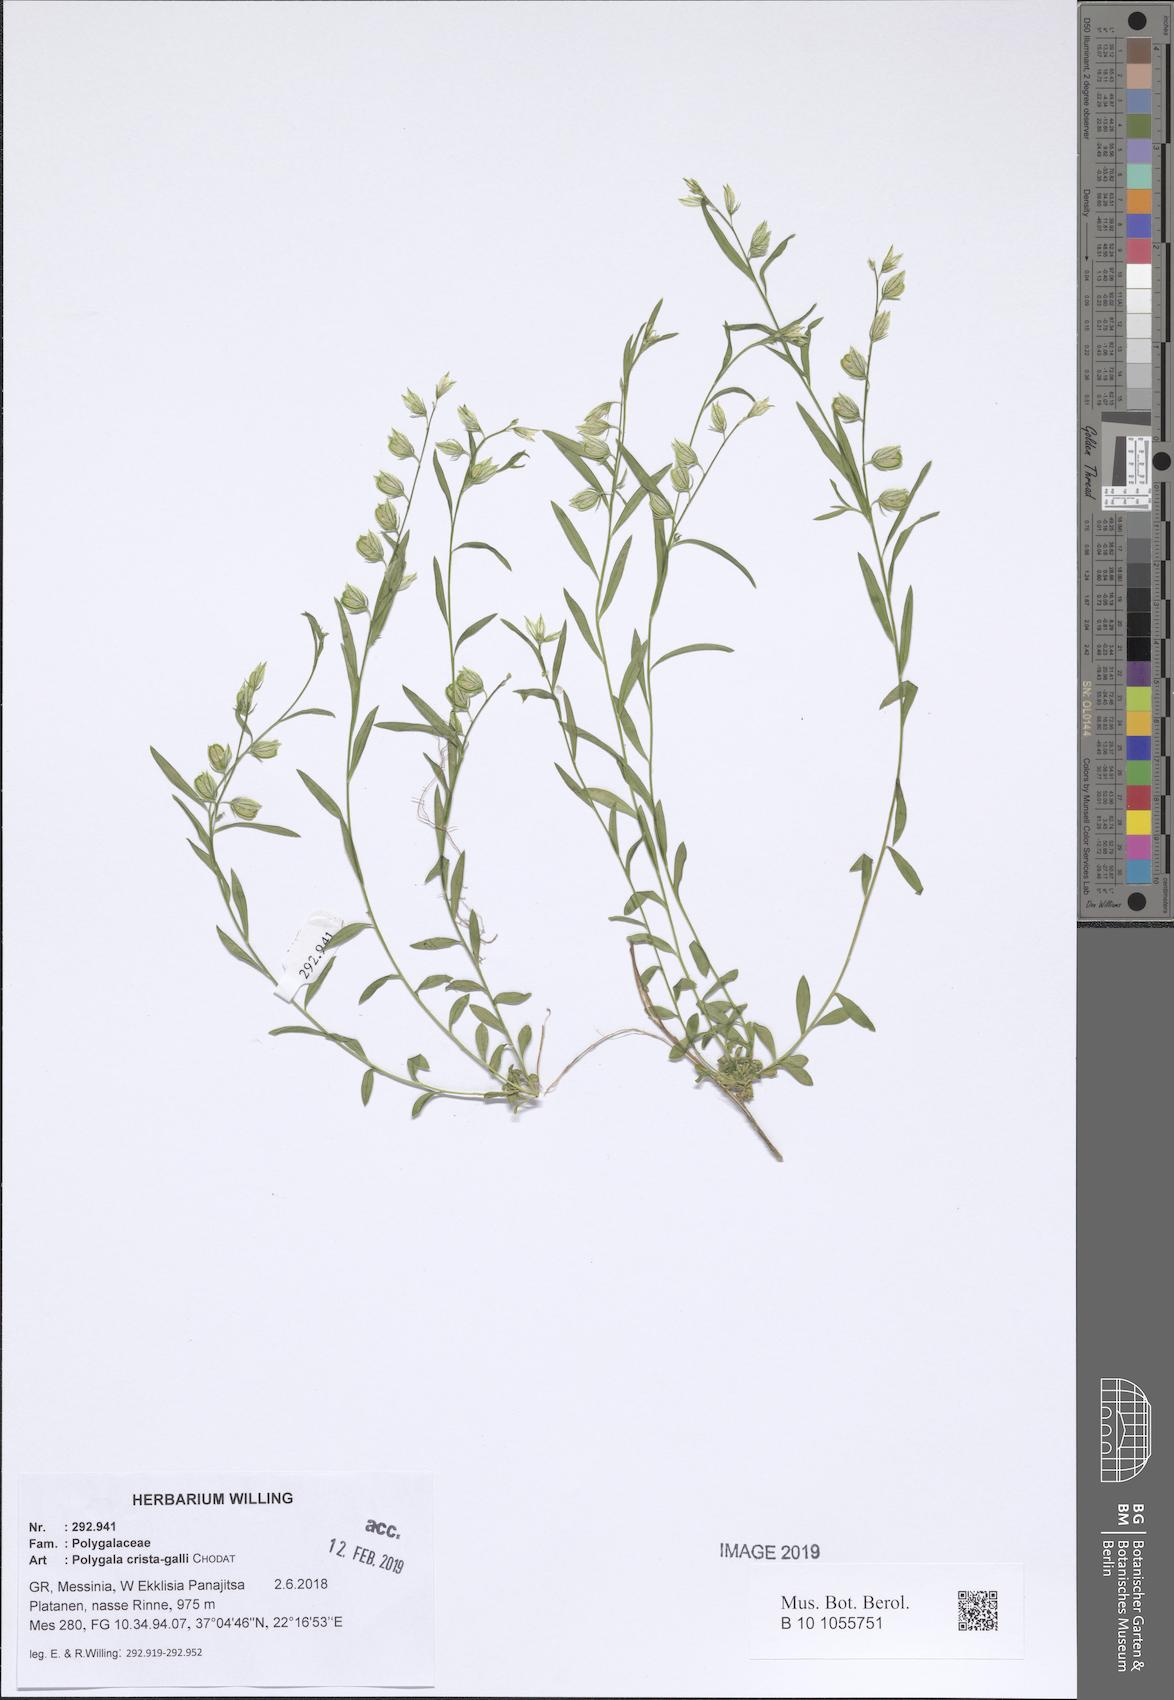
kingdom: Plantae
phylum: Tracheophyta
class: Magnoliopsida
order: Fabales
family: Polygalaceae
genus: Polygala
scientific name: Polygala crista-galli
